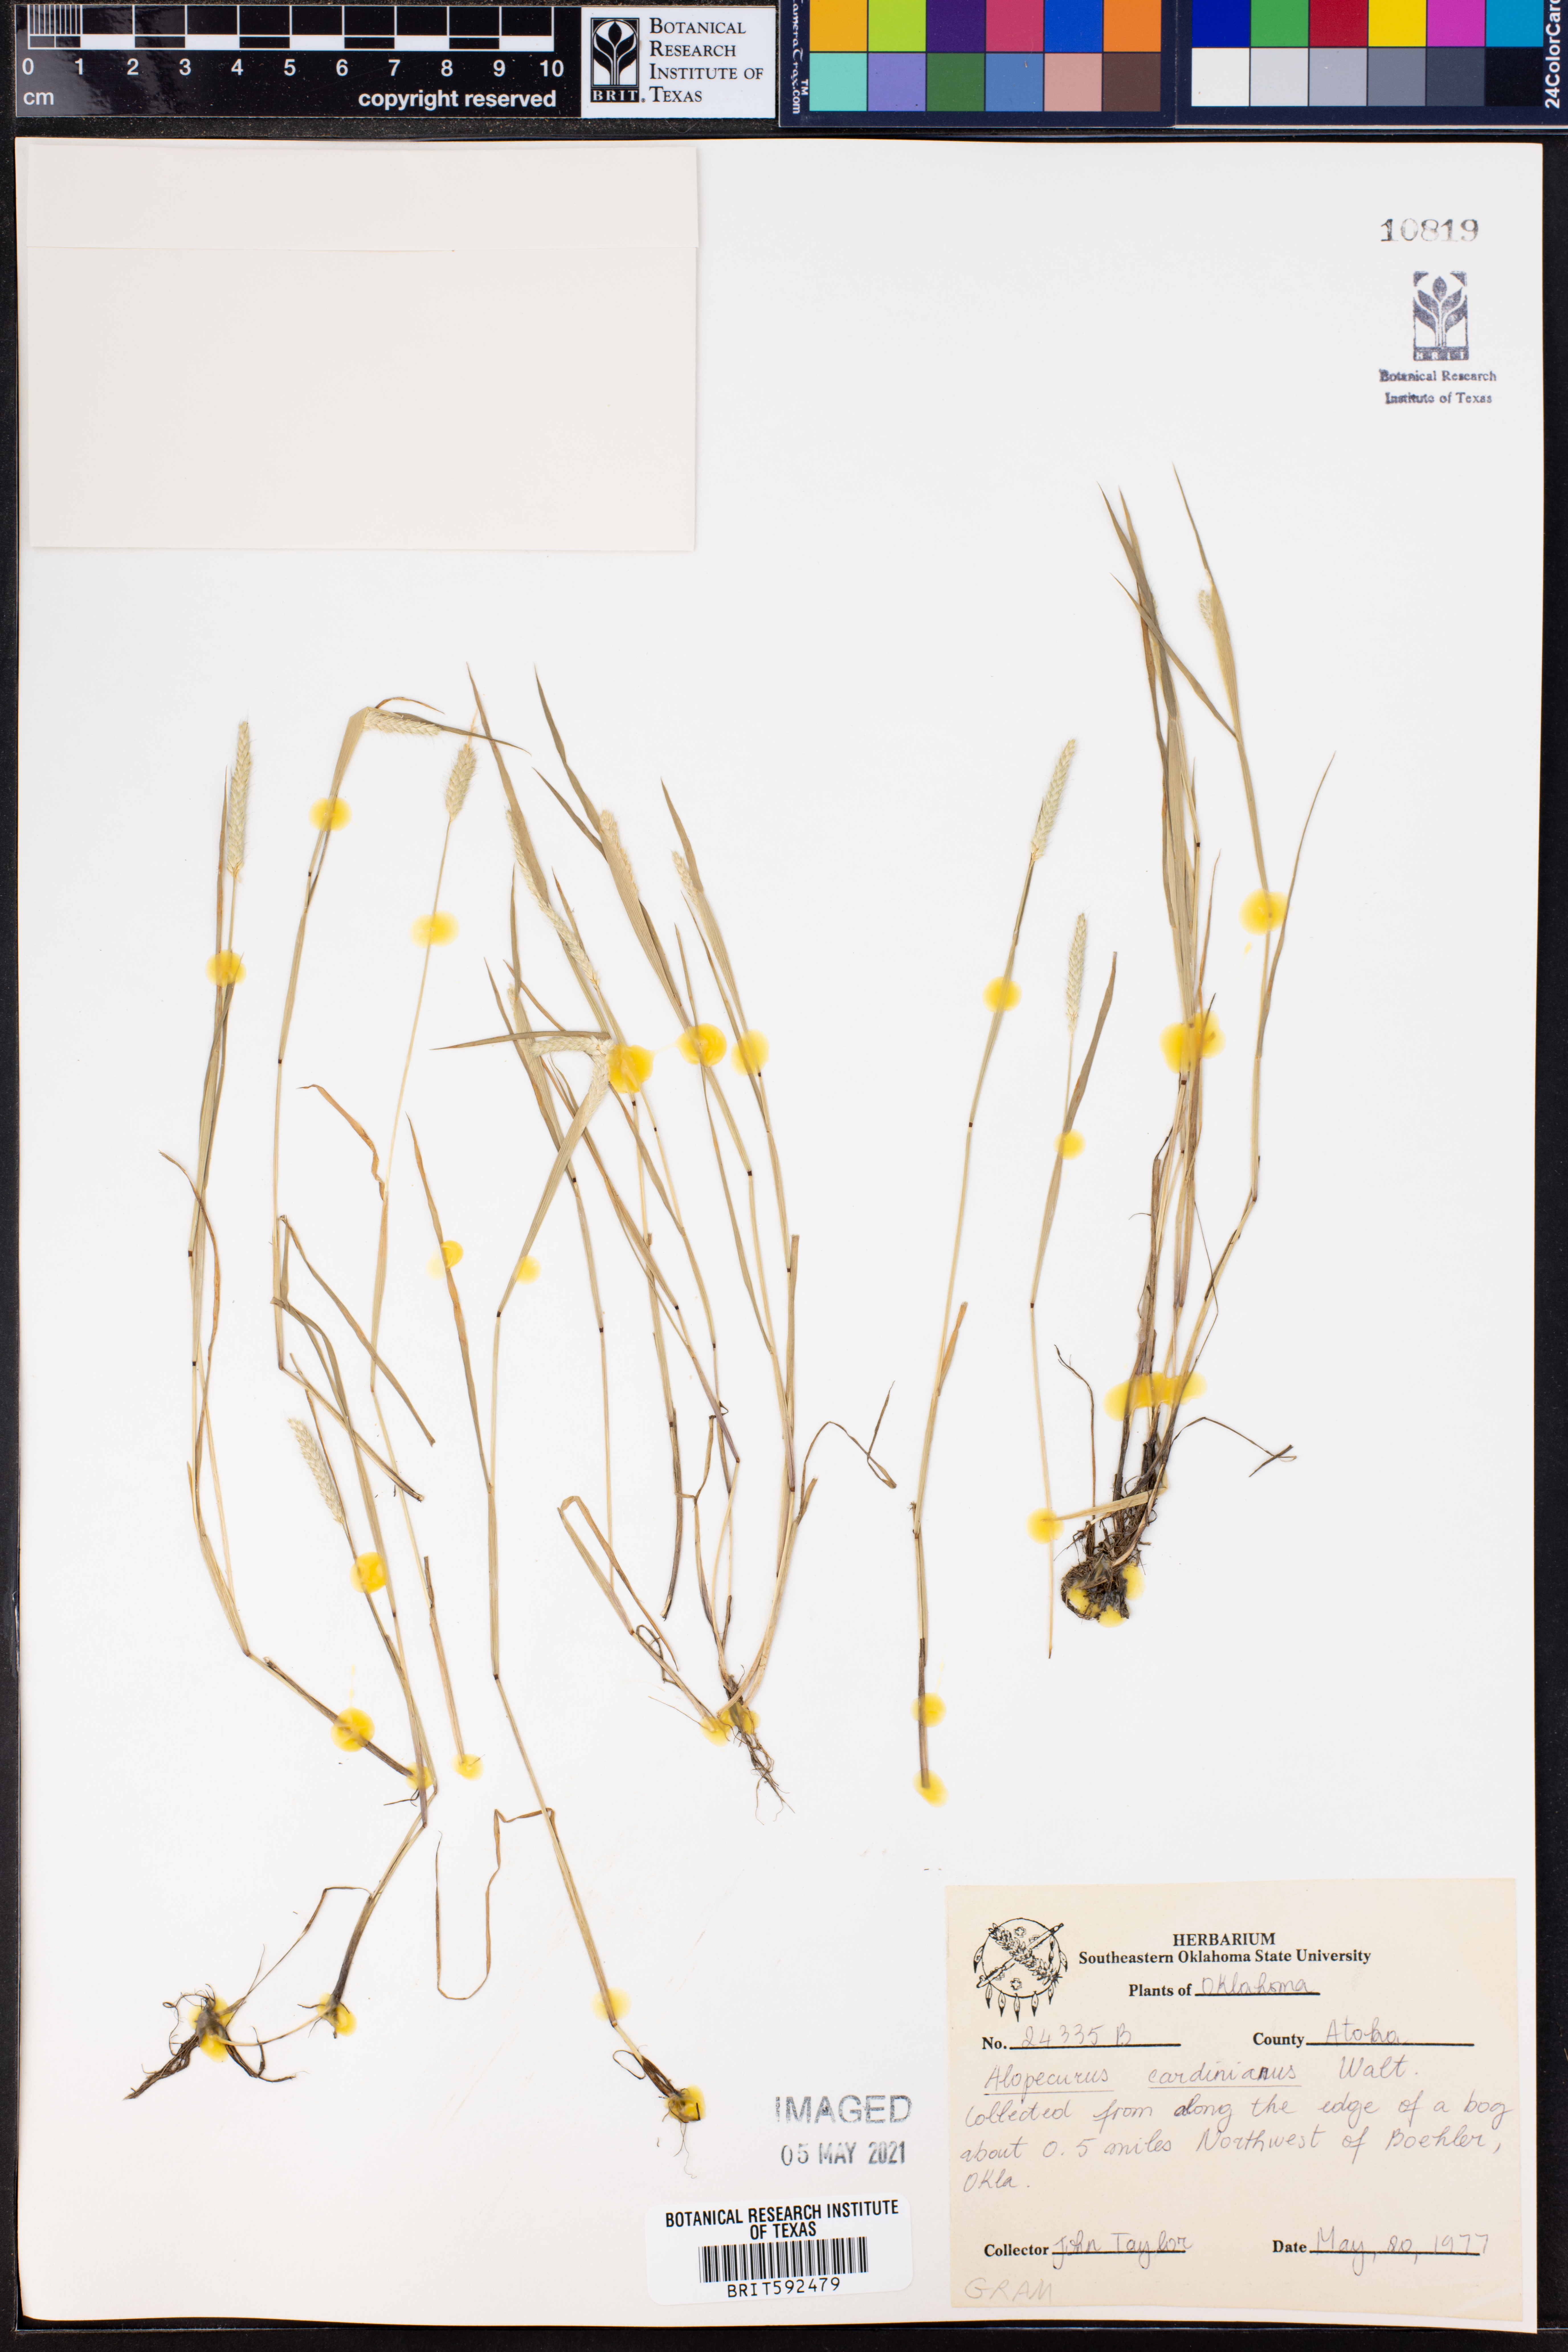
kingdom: Plantae
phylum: Tracheophyta
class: Liliopsida
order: Poales
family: Poaceae
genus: Alopecurus
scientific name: Alopecurus carolinianus
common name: Tufted foxtail
